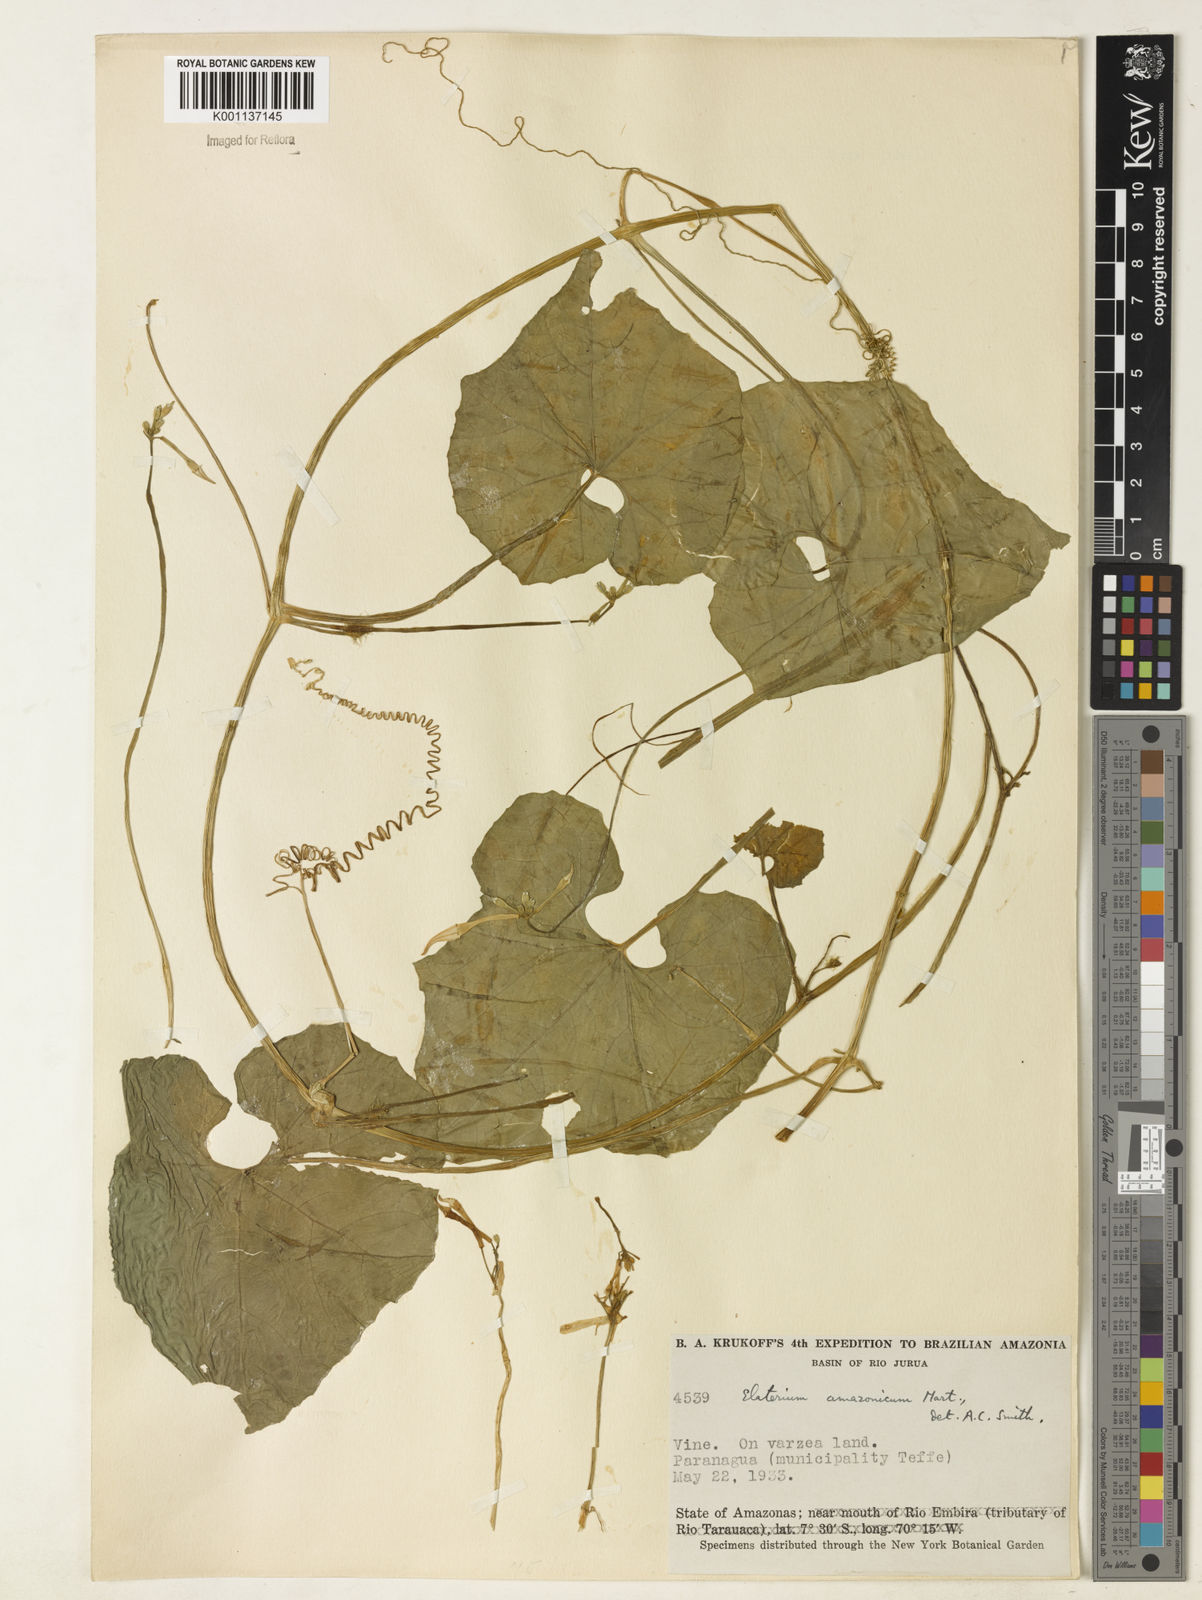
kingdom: Plantae
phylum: Tracheophyta
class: Magnoliopsida
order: Cucurbitales
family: Cucurbitaceae
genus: Cyclanthera
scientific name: Cyclanthera carthagenensis
